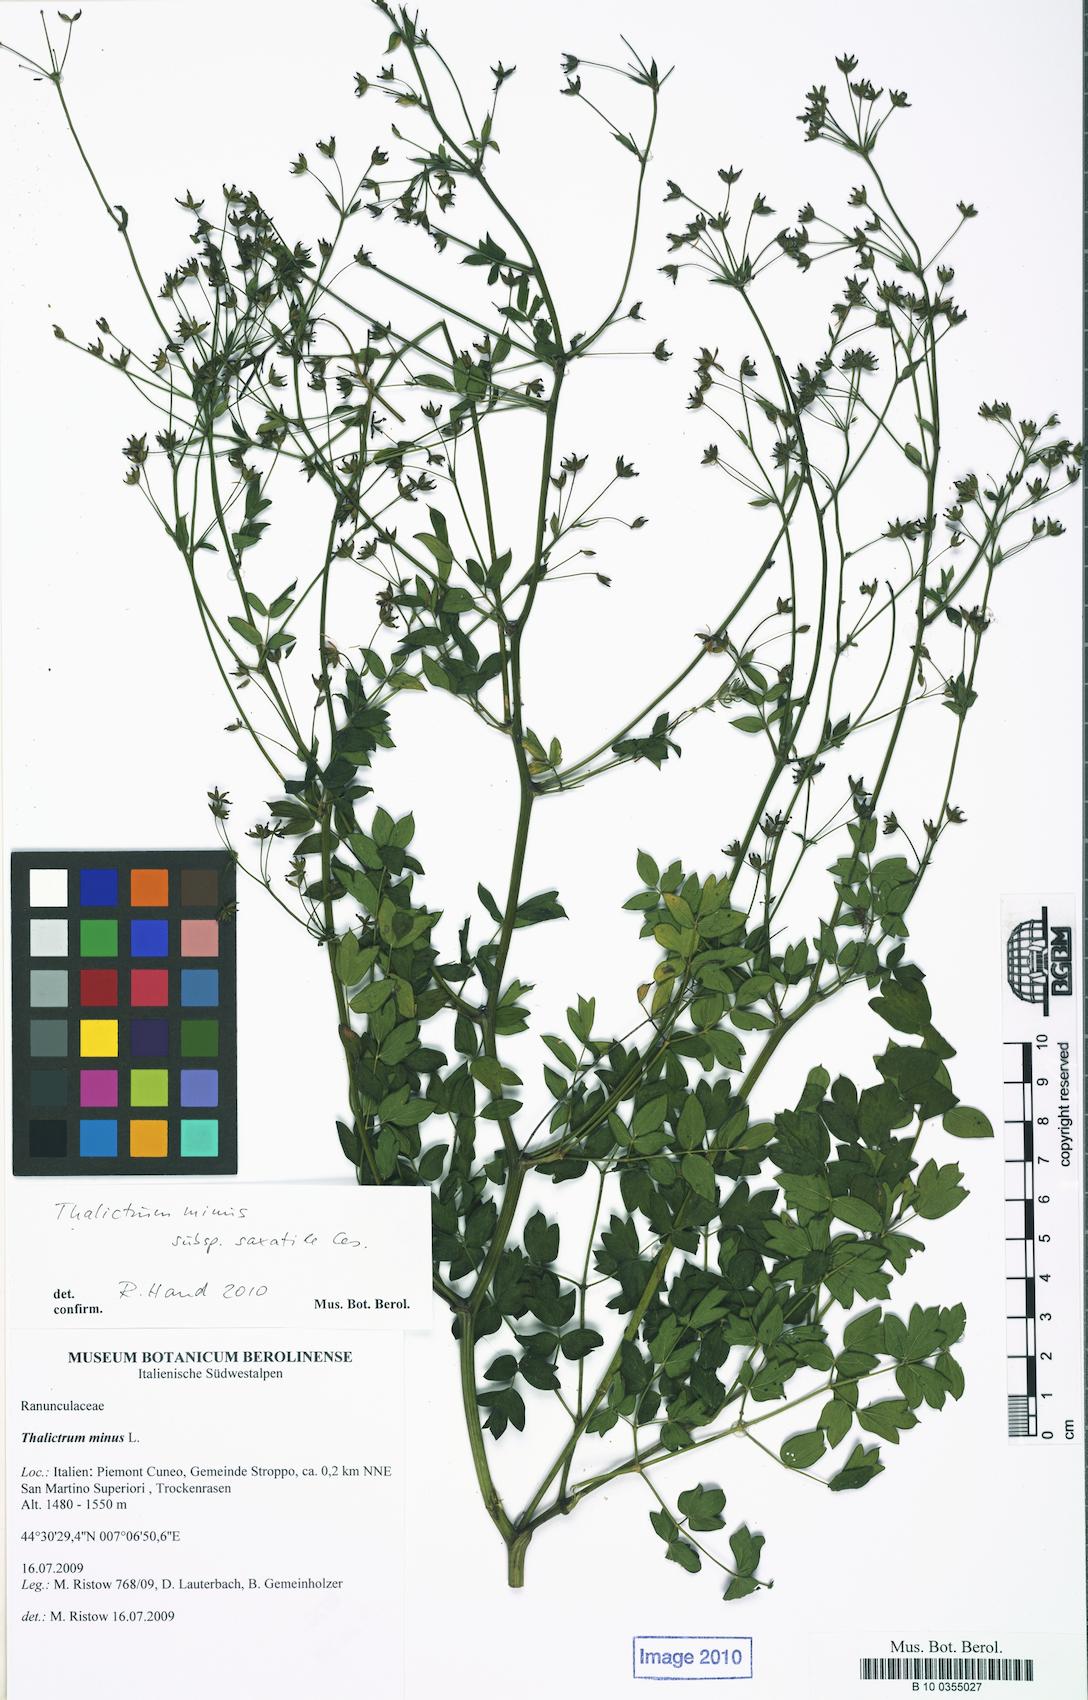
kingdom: Plantae
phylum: Tracheophyta
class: Magnoliopsida
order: Ranunculales
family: Ranunculaceae
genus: Thalictrum
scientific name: Thalictrum minus
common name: Lesser meadow-rue
